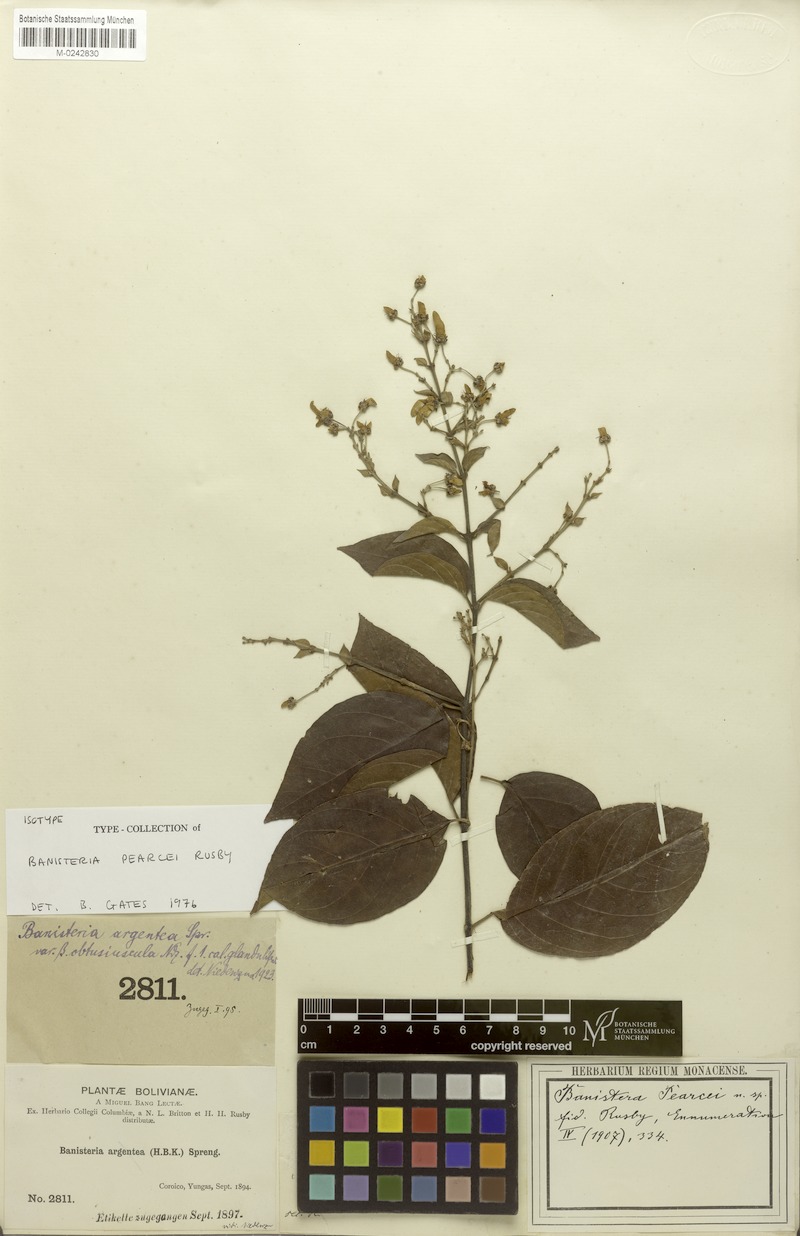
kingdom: Plantae
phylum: Tracheophyta
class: Magnoliopsida
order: Malpighiales
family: Malpighiaceae
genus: Diplopterys
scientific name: Diplopterys pubipetala
